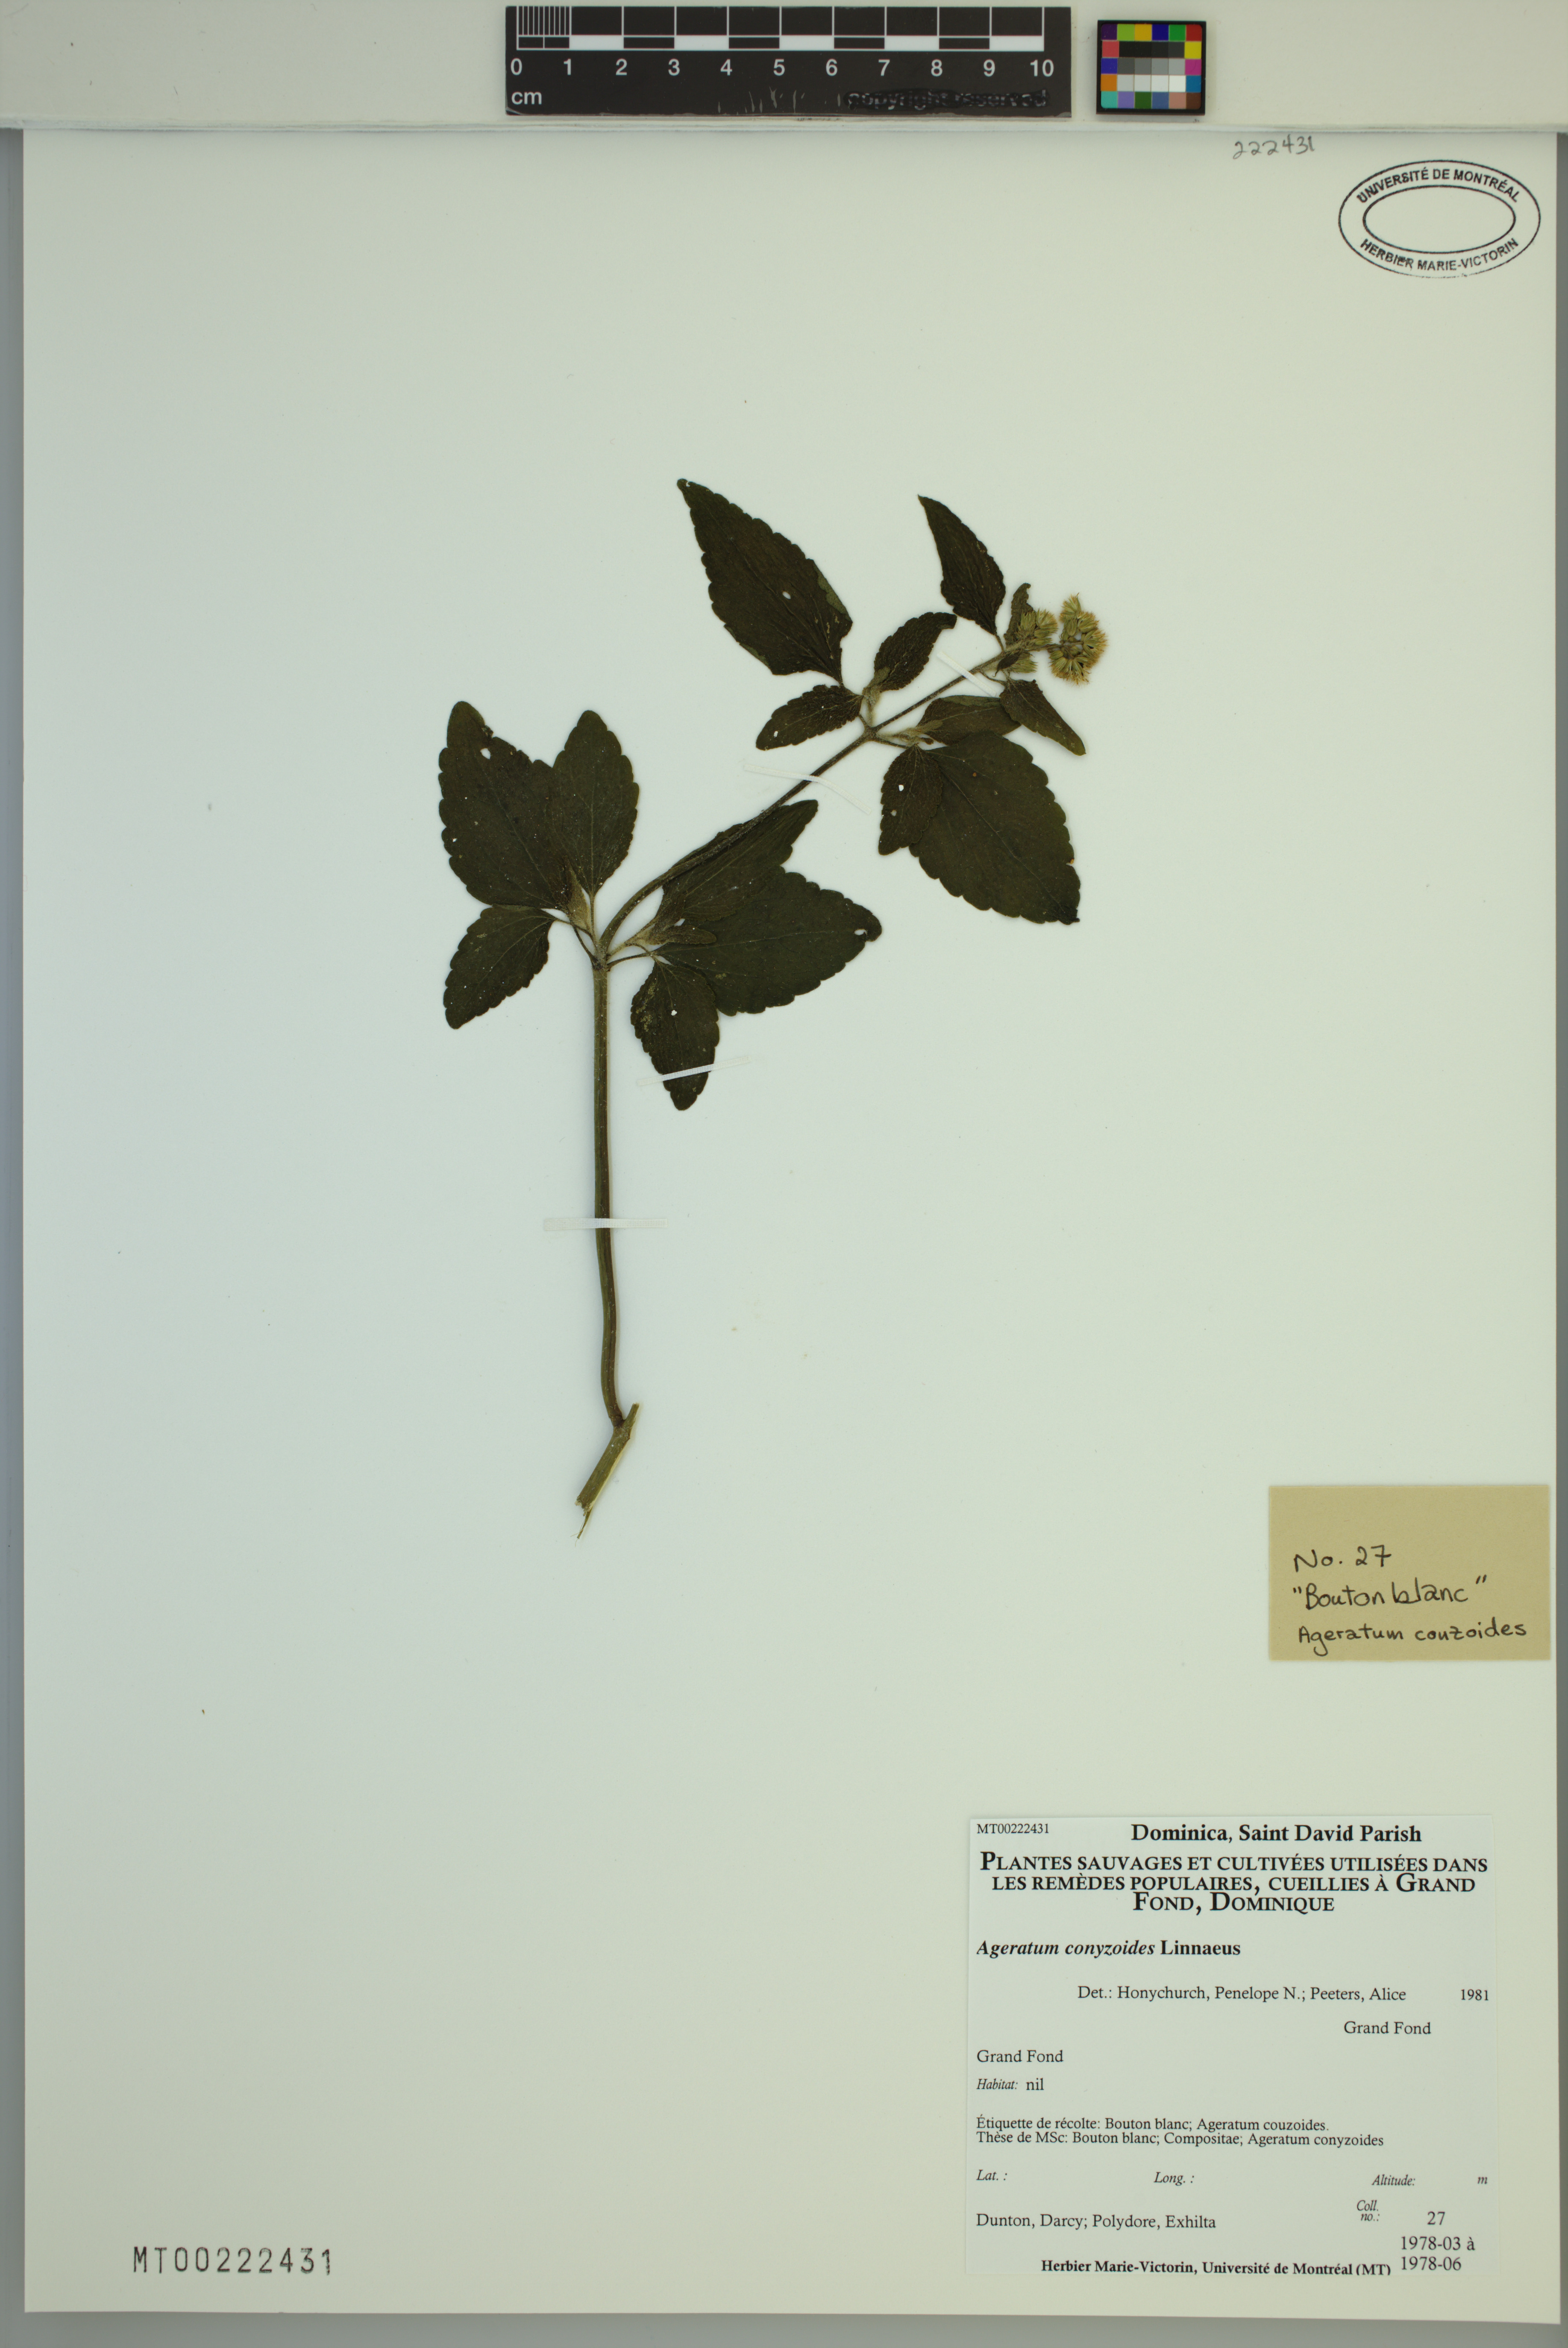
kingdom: Plantae
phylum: Tracheophyta
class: Magnoliopsida
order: Asterales
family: Asteraceae
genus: Ageratum
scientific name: Ageratum conyzoides
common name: Tropical whiteweed
